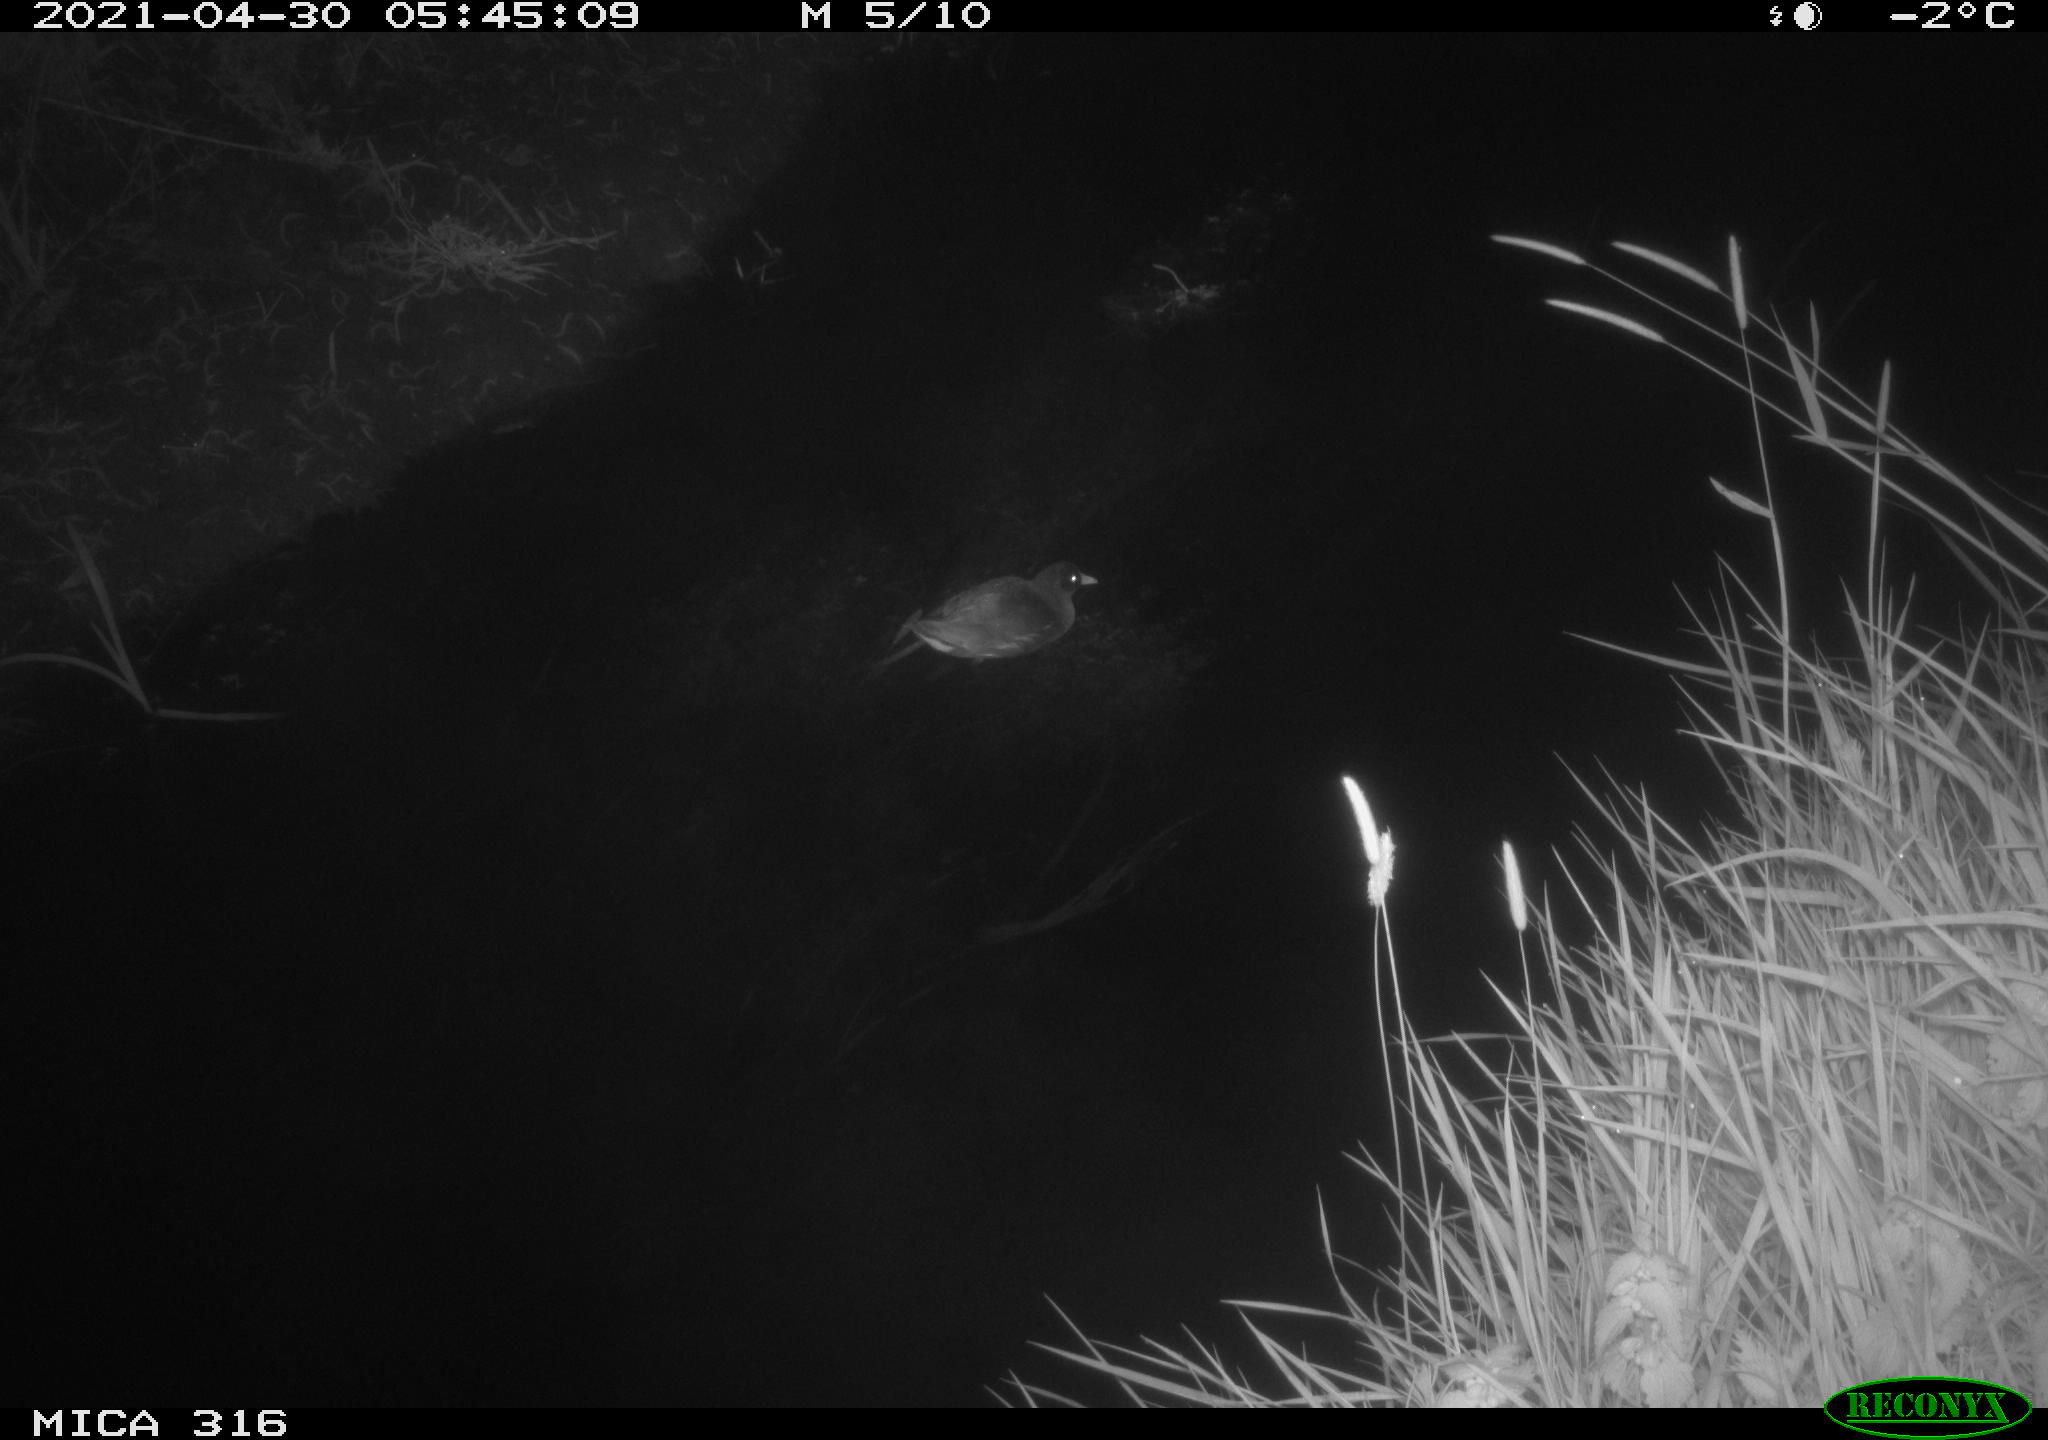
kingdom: Animalia
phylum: Chordata
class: Aves
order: Gruiformes
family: Rallidae
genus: Gallinula
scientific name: Gallinula chloropus
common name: Common moorhen
